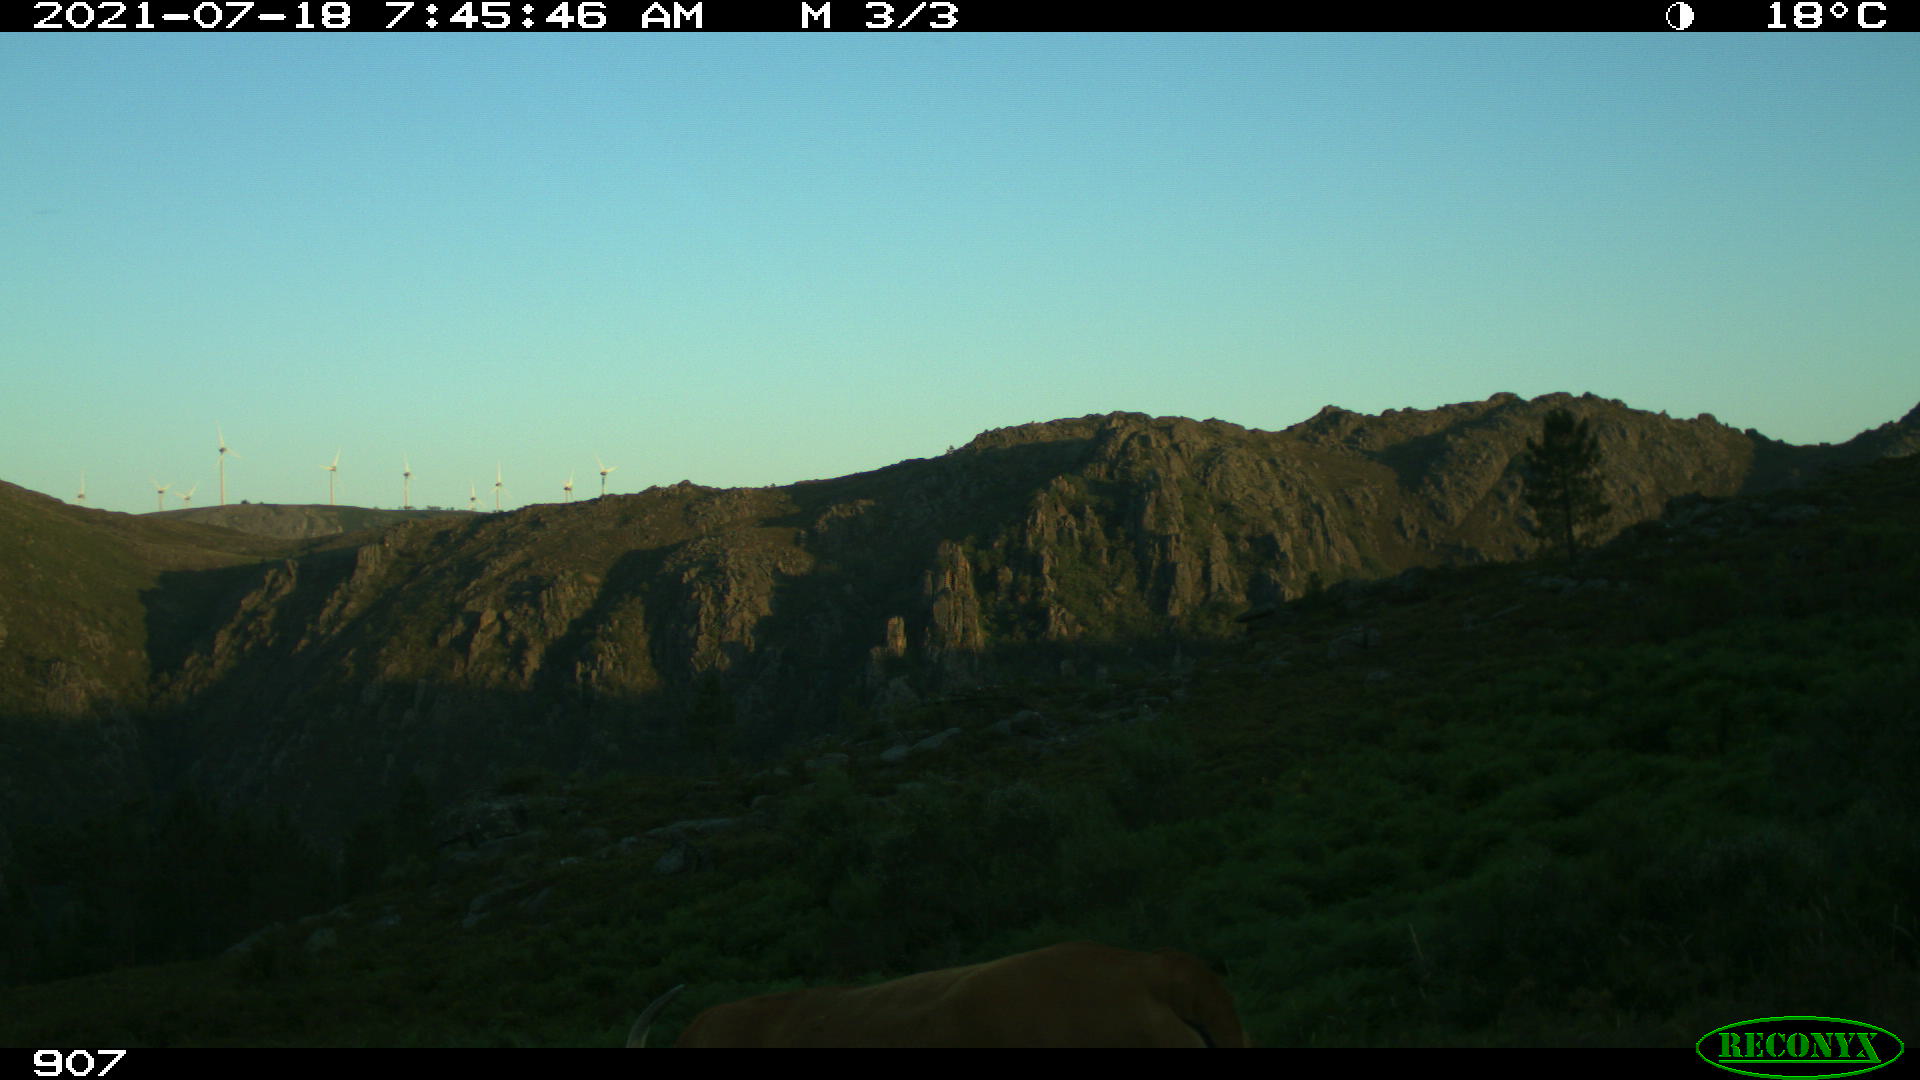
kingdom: Animalia
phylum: Chordata
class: Mammalia
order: Artiodactyla
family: Bovidae
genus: Bos
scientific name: Bos taurus
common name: Domesticated cattle
